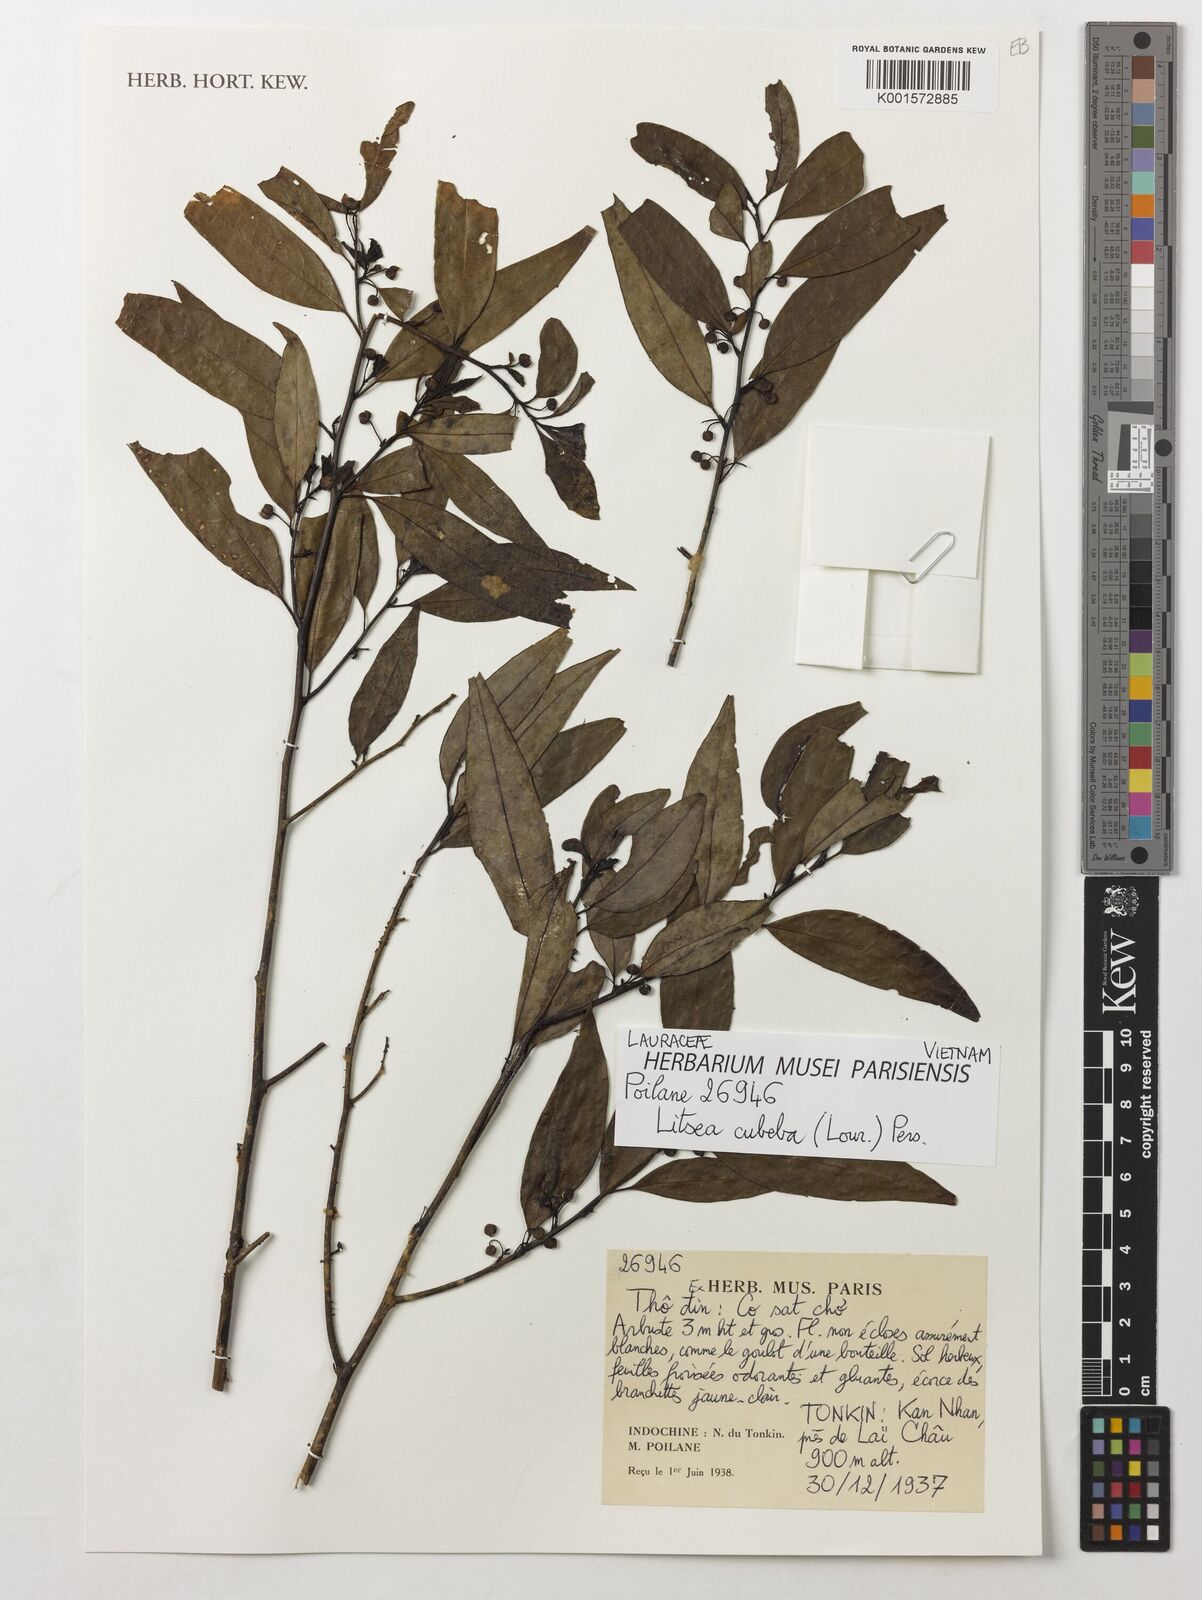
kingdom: Plantae
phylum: Tracheophyta
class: Magnoliopsida
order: Laurales
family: Lauraceae
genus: Litsea
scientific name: Litsea cubeba
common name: Mountain-pepper
